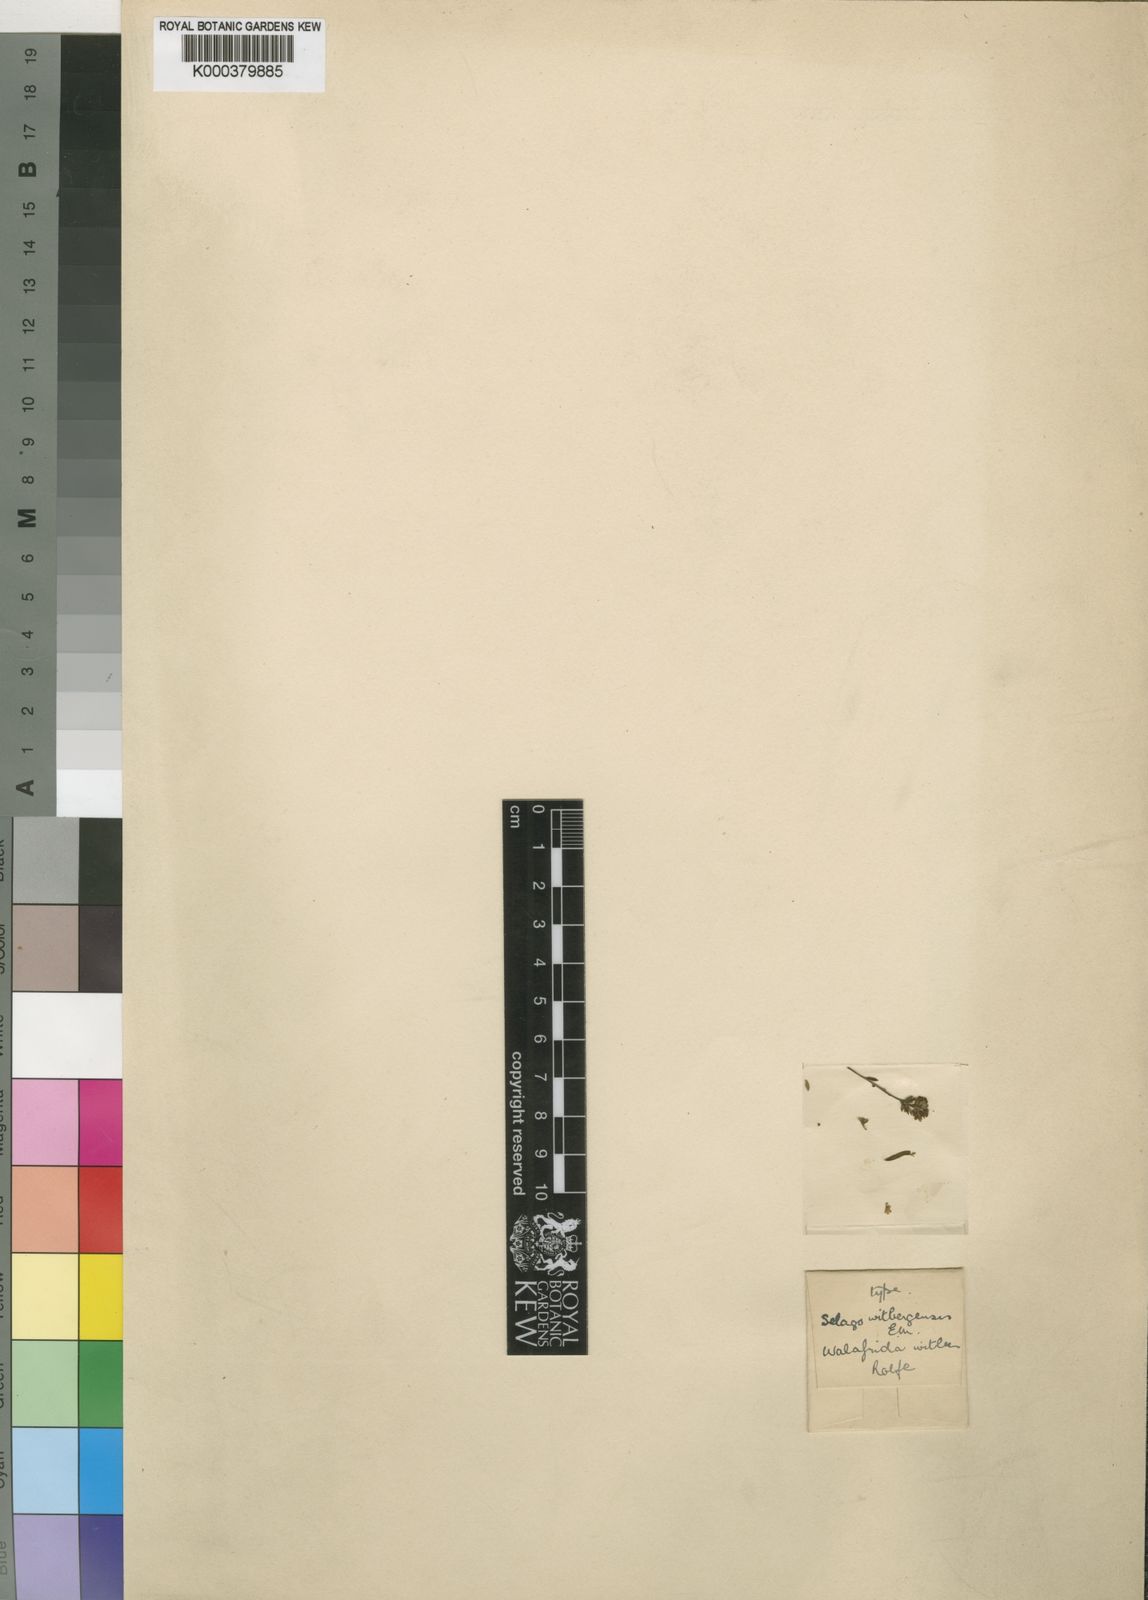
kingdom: Plantae
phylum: Tracheophyta
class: Magnoliopsida
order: Lamiales
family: Scrophulariaceae
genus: Selago
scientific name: Selago witbergensis
